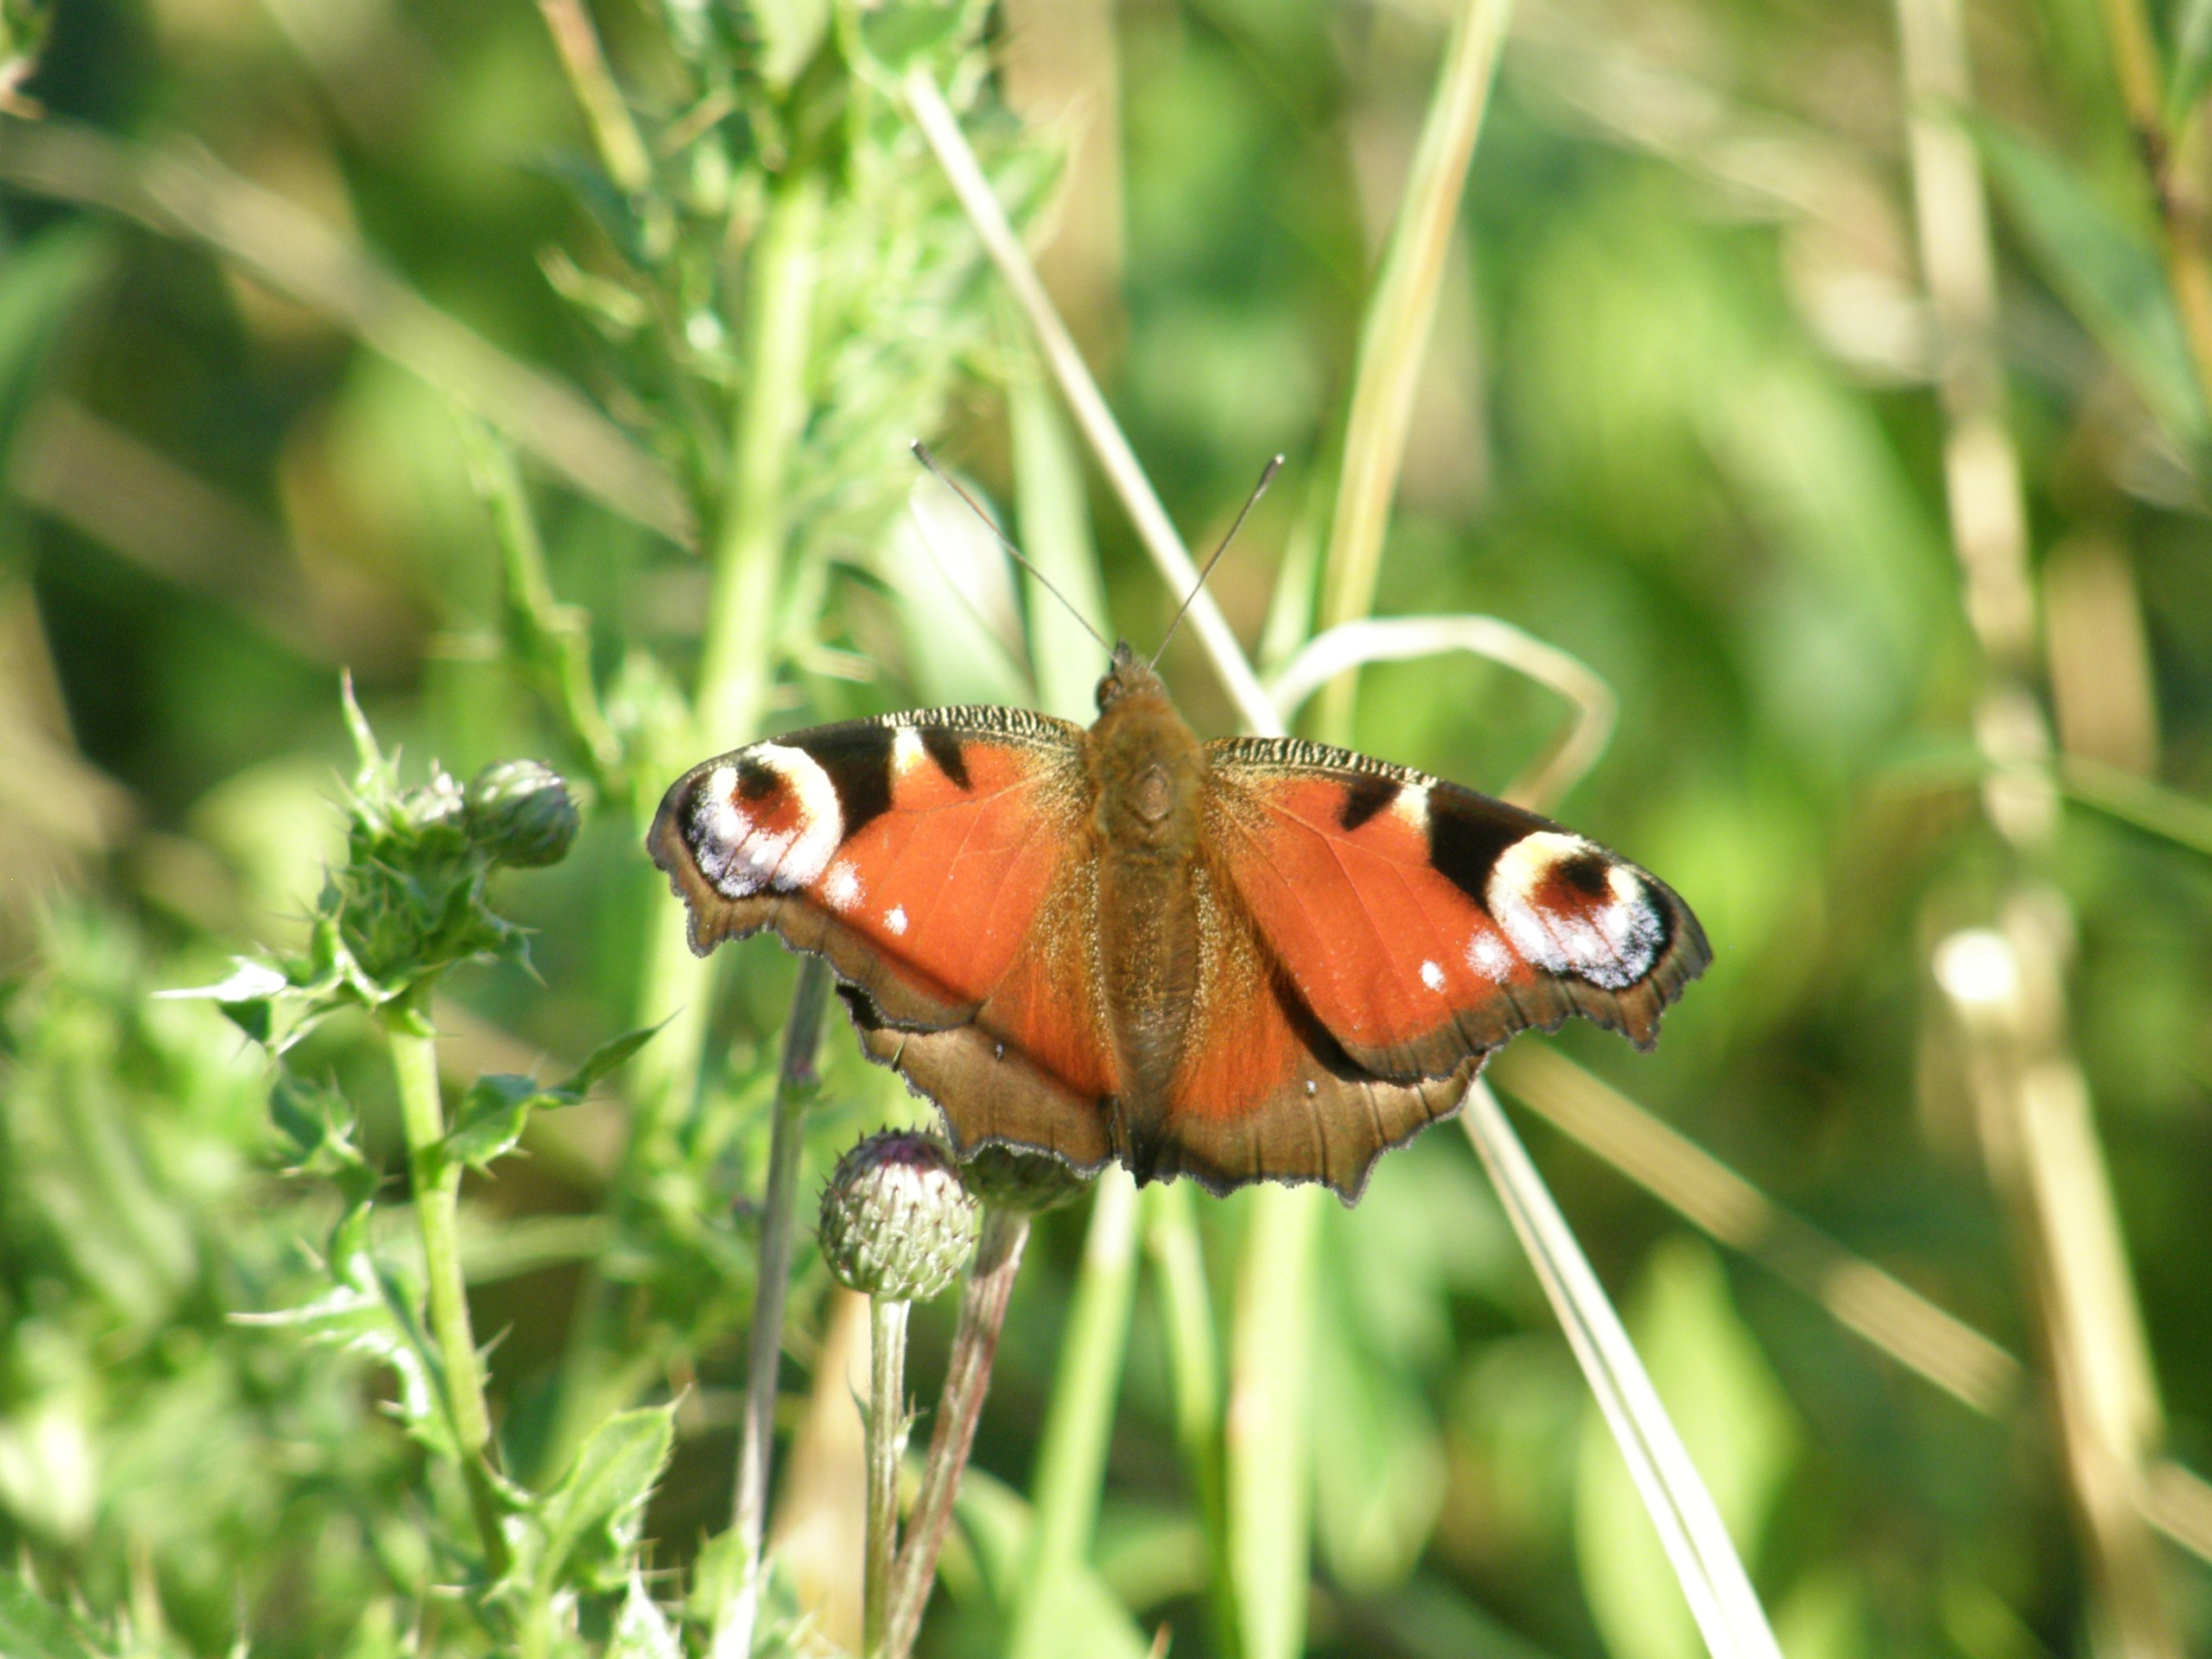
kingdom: Animalia
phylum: Arthropoda
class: Insecta
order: Lepidoptera
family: Nymphalidae
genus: Aglais
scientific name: Aglais io
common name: Dagpåfugleøje
